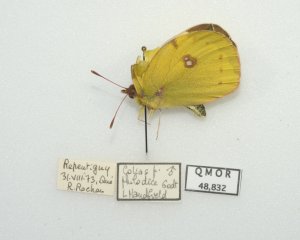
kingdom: Animalia
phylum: Arthropoda
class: Insecta
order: Lepidoptera
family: Pieridae
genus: Colias
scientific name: Colias philodice
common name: Clouded Sulphur
